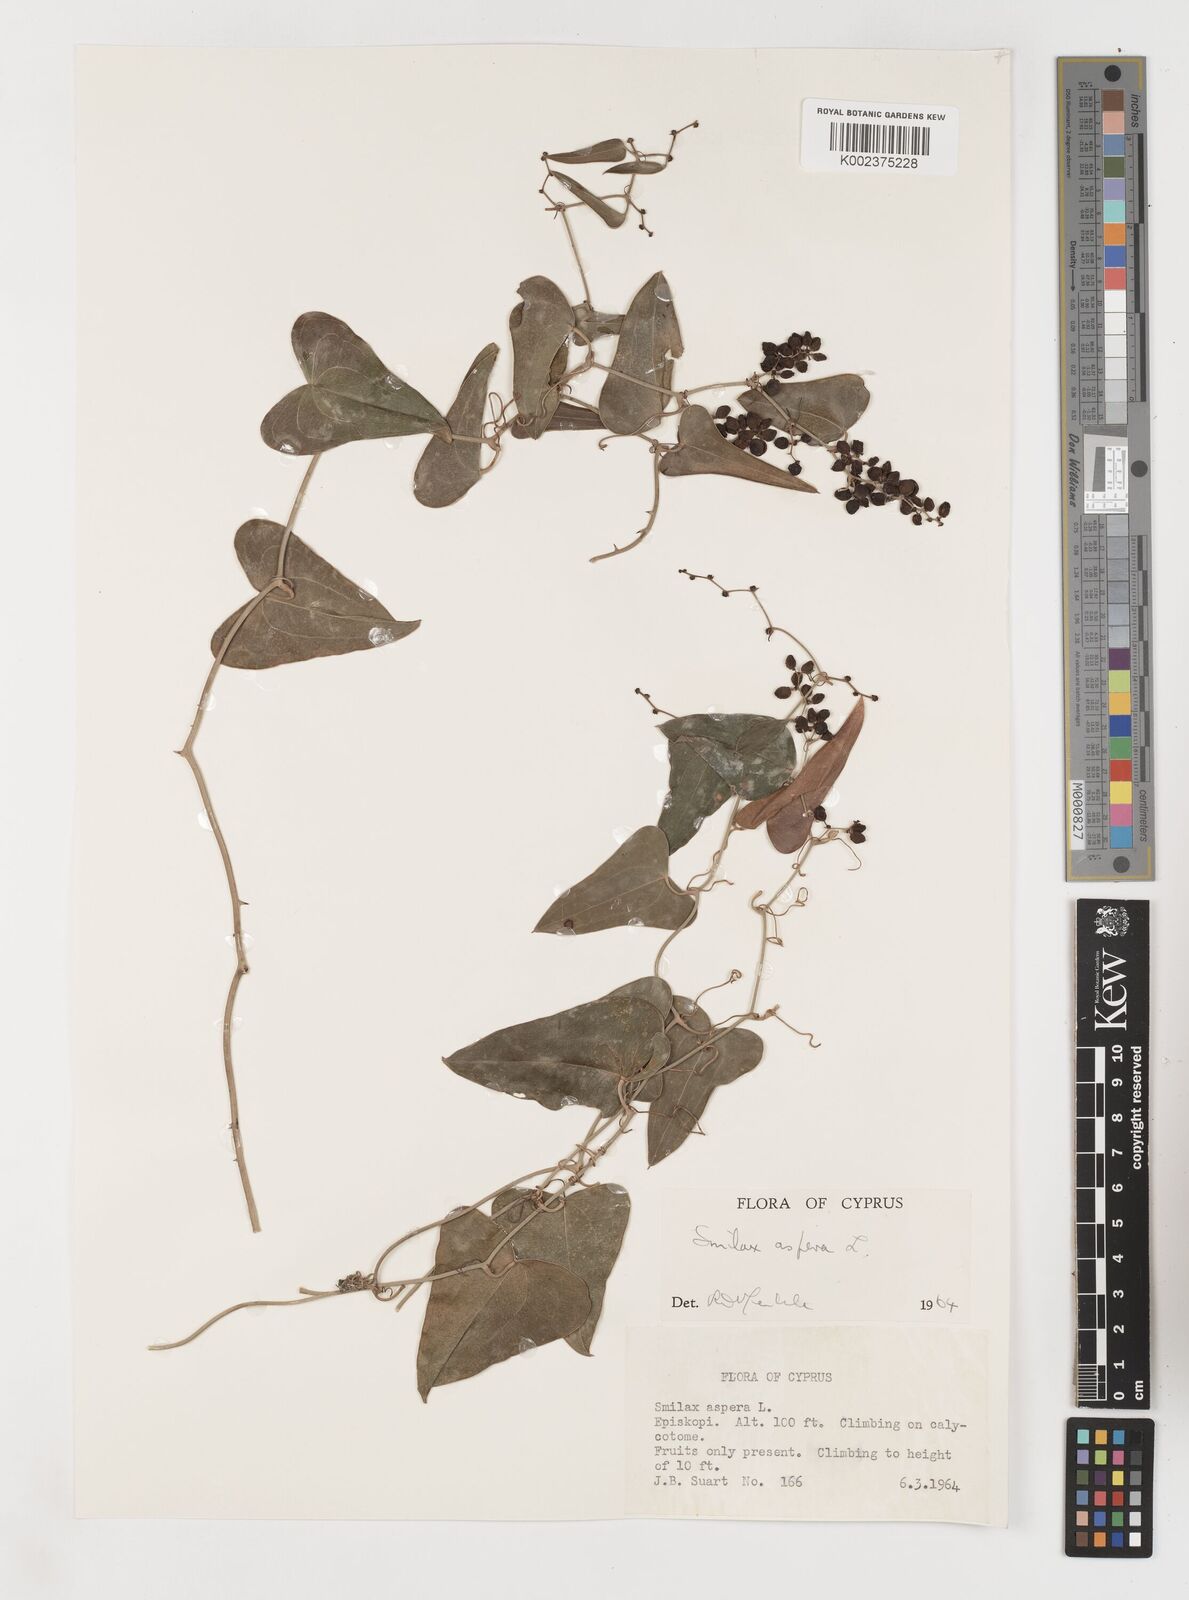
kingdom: Plantae
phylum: Tracheophyta
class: Liliopsida
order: Liliales
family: Smilacaceae
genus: Smilax
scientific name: Smilax aspera
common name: Common smilax
